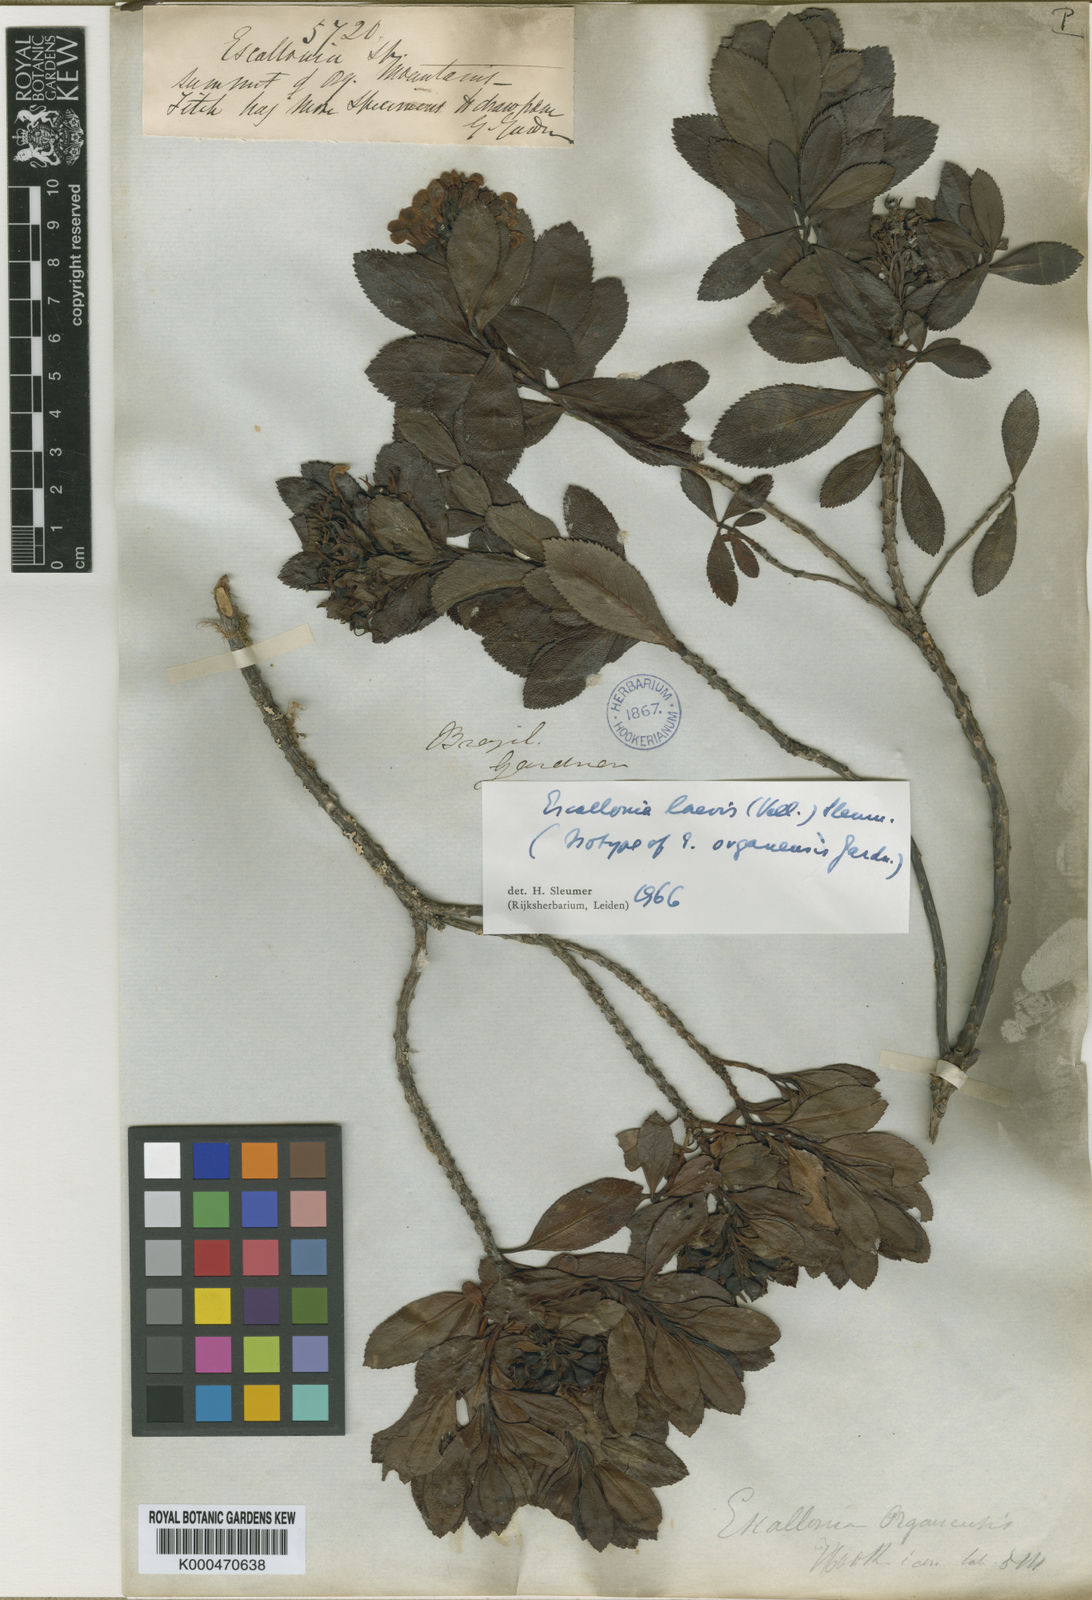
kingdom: Plantae
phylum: Tracheophyta
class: Magnoliopsida
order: Escalloniales
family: Escalloniaceae
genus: Escallonia
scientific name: Escallonia laevis
